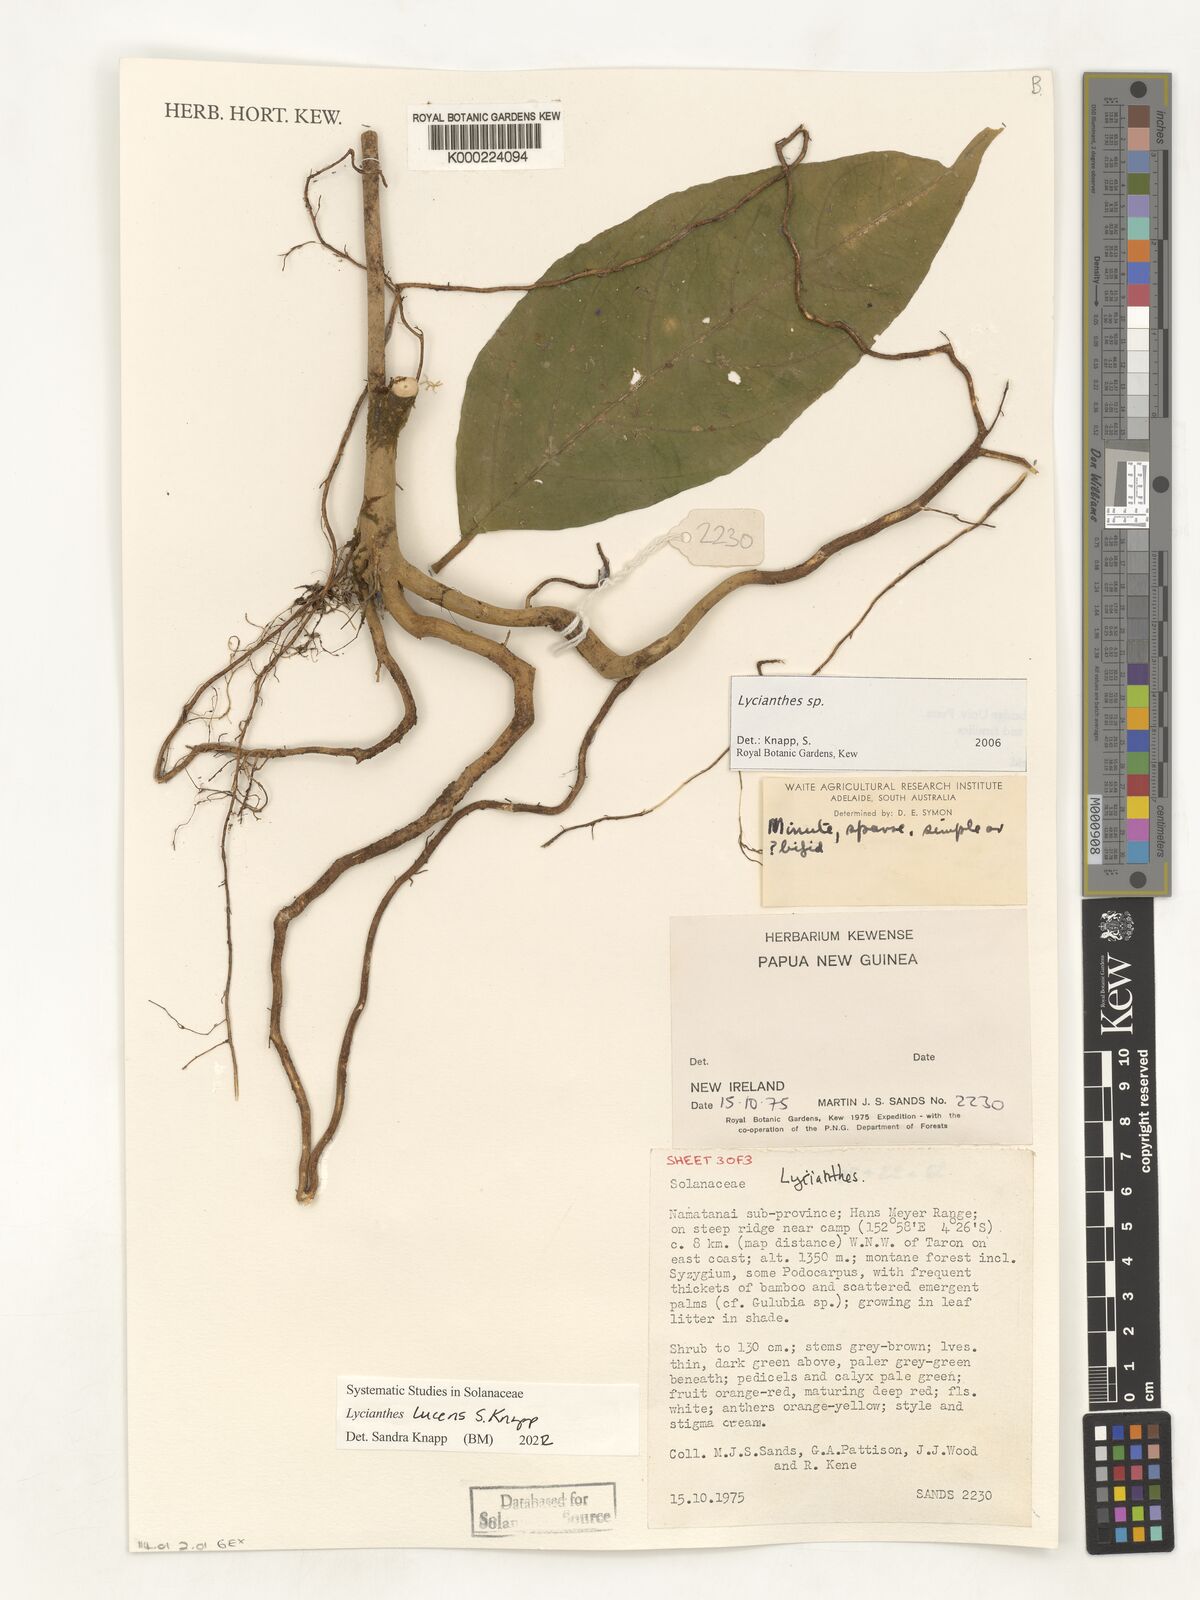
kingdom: Plantae
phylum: Tracheophyta
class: Magnoliopsida
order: Solanales
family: Solanaceae
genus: Lycianthes
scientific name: Lycianthes
